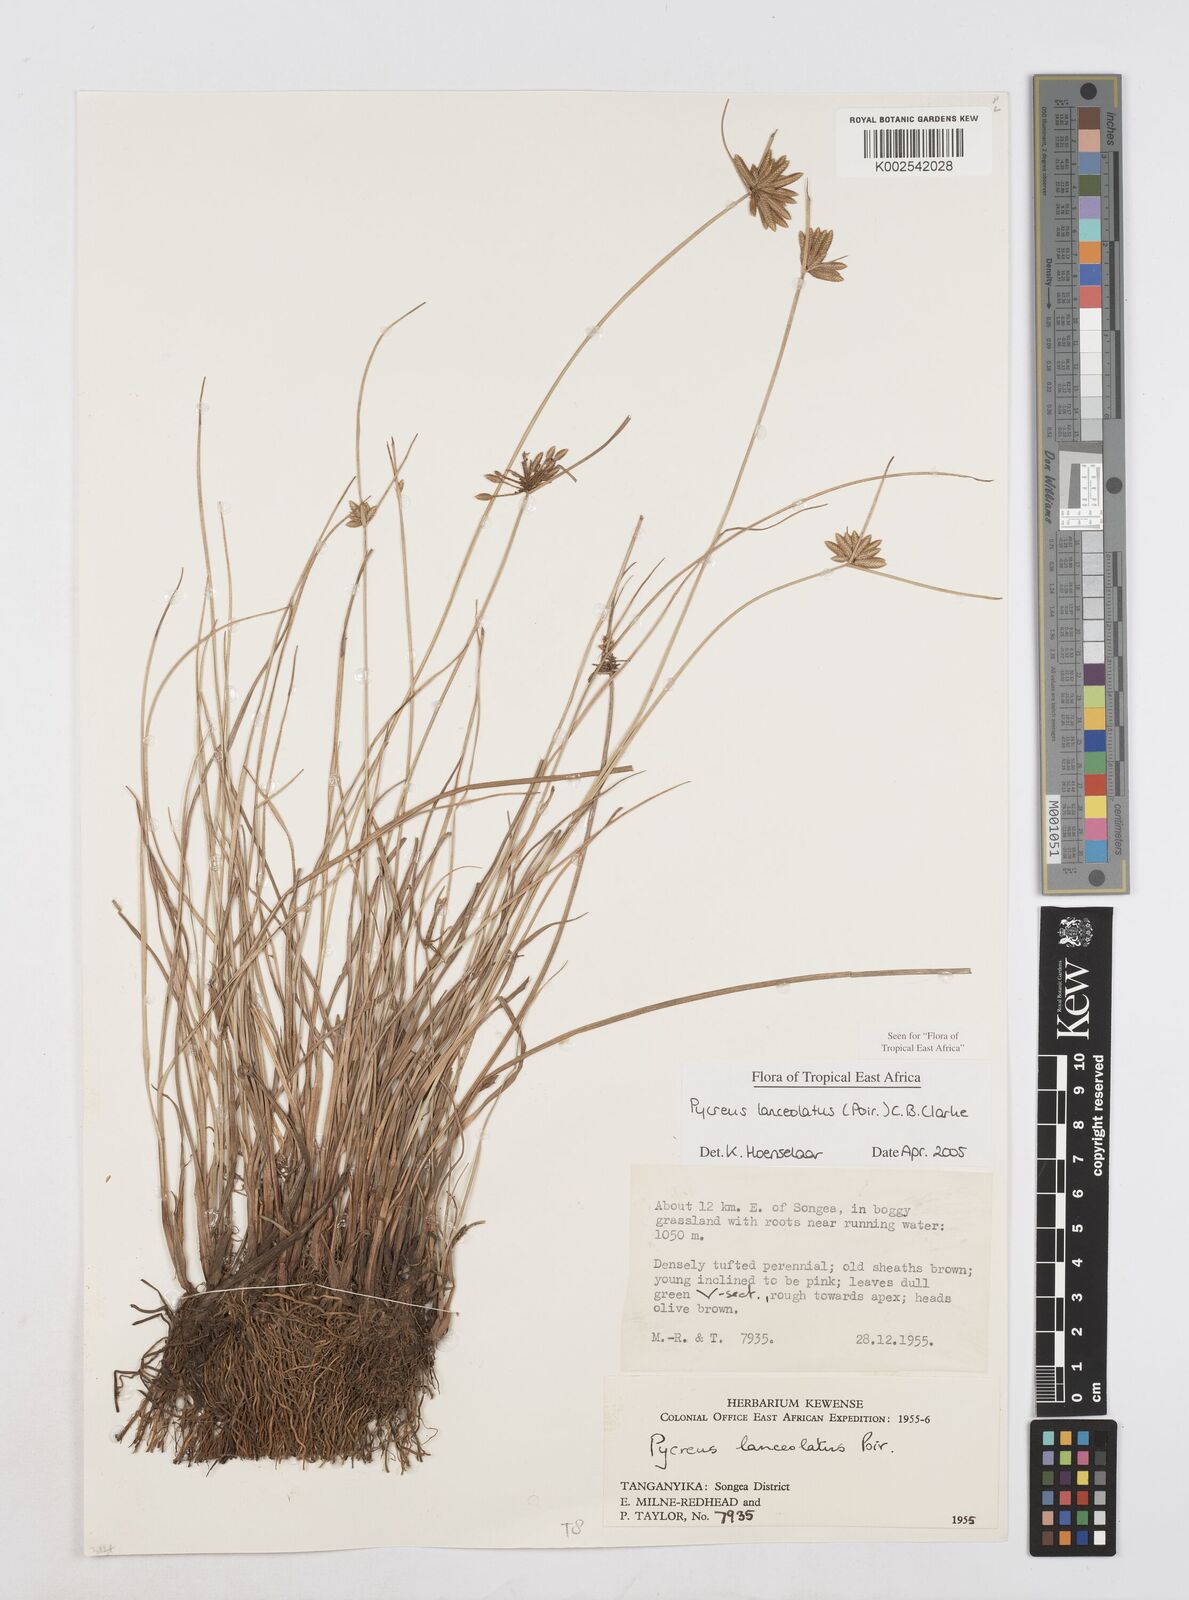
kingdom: Plantae
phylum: Tracheophyta
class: Liliopsida
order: Poales
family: Cyperaceae
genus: Cyperus
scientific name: Cyperus lanceolatus
